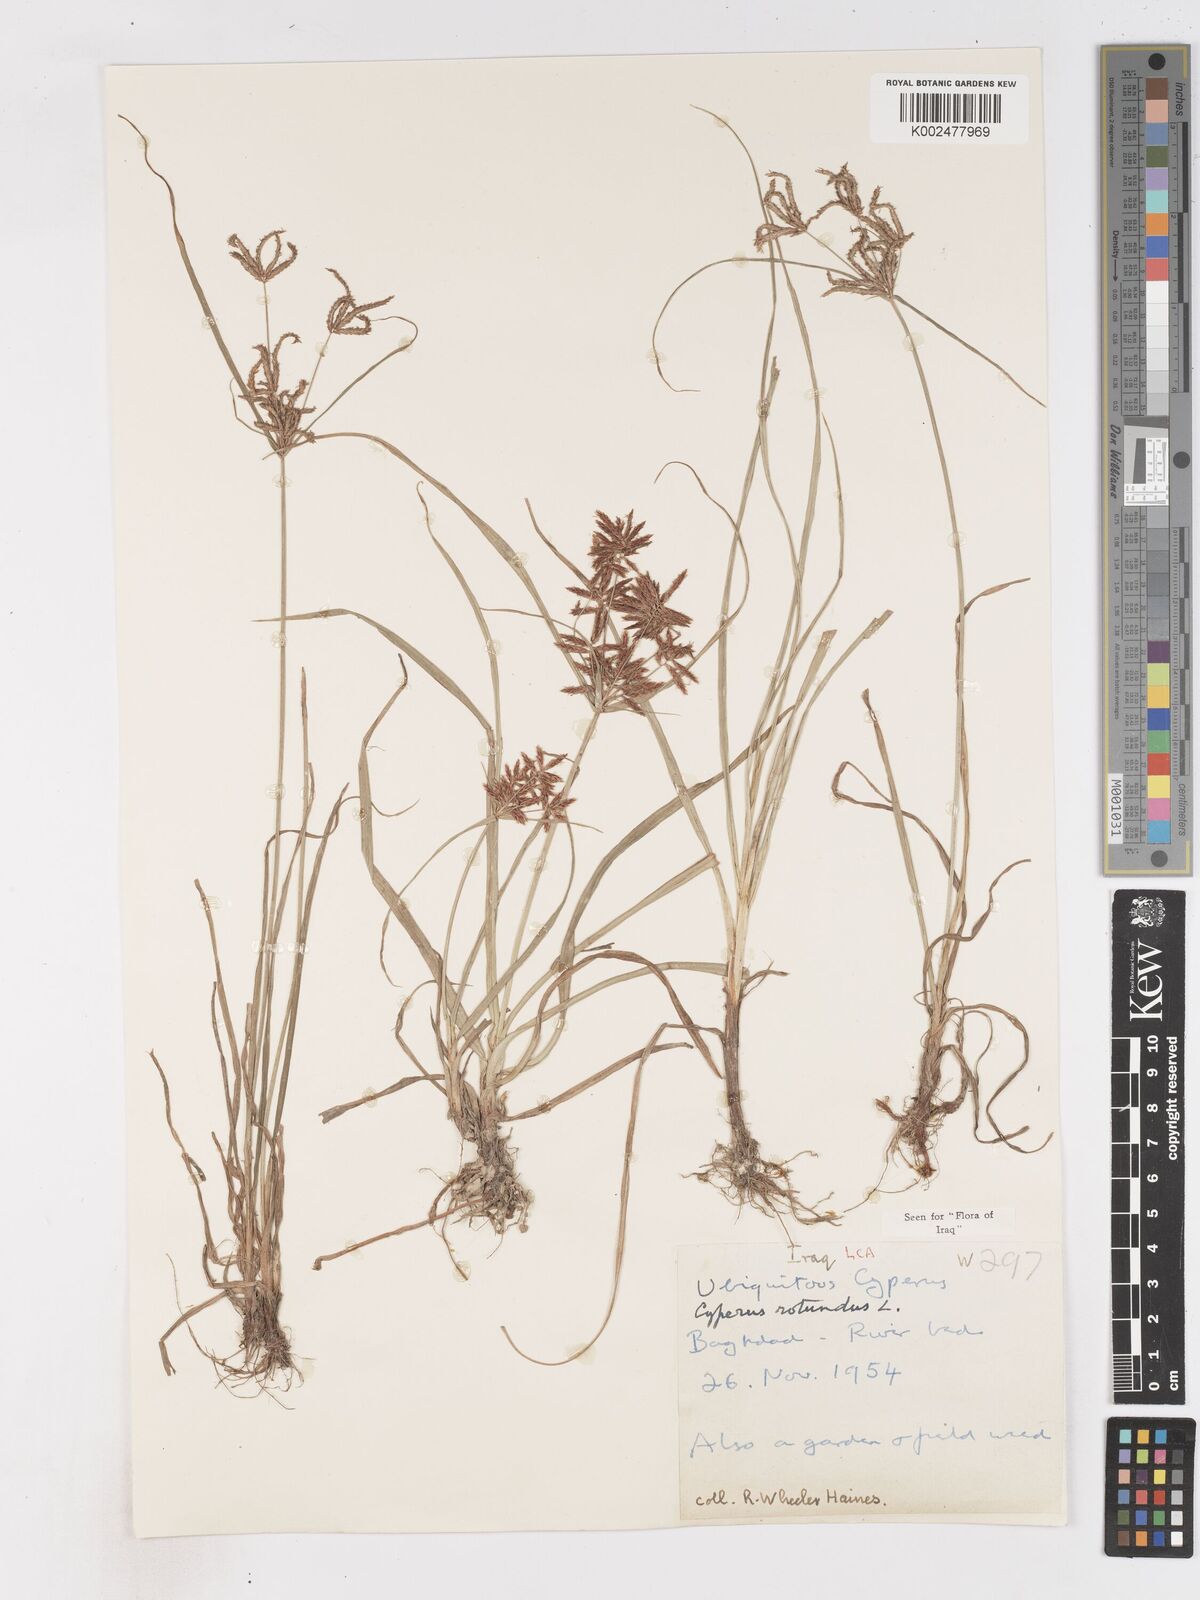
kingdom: Plantae
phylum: Tracheophyta
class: Liliopsida
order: Poales
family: Cyperaceae
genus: Cyperus
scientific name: Cyperus rotundus
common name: Nutgrass
